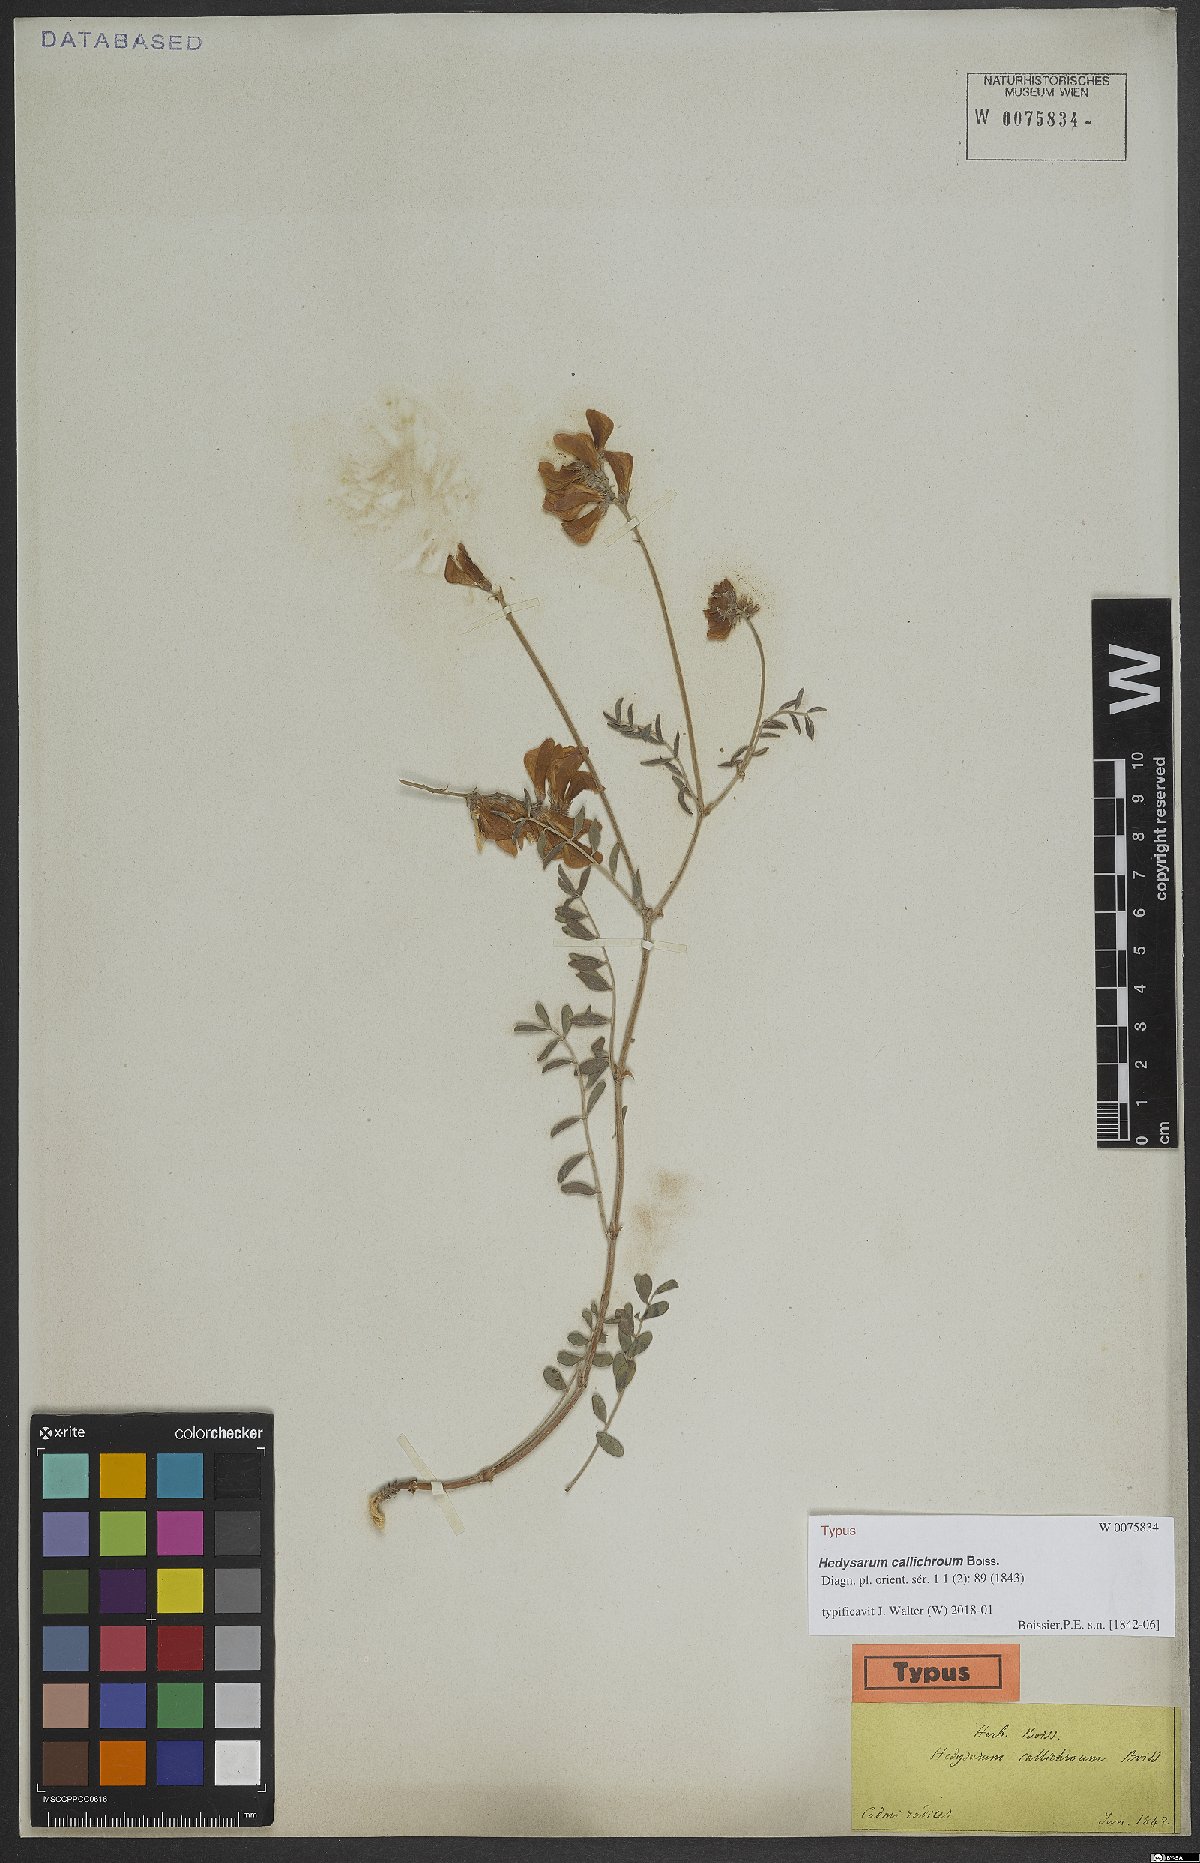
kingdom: Plantae
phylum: Tracheophyta
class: Magnoliopsida
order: Fabales
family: Fabaceae
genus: Hedysarum
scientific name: Hedysarum varium
